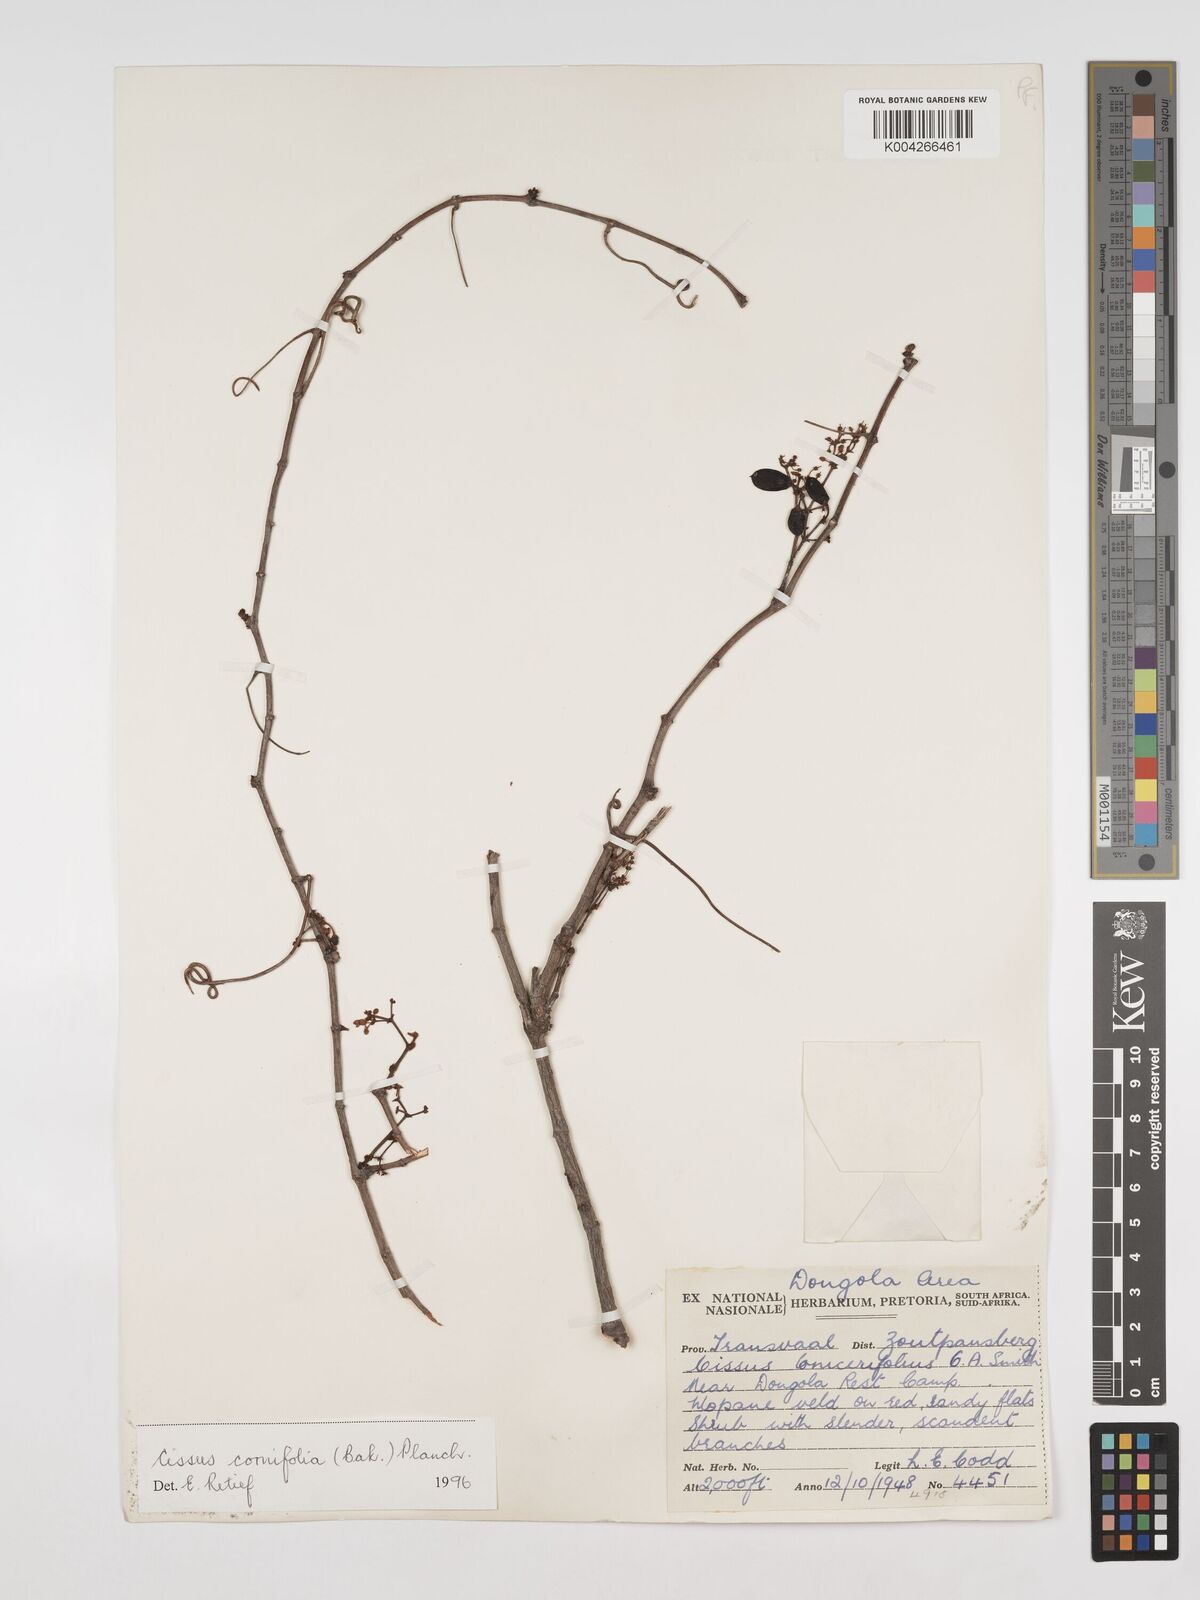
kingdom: Plantae
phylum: Tracheophyta
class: Magnoliopsida
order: Vitales
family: Vitaceae
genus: Cissus
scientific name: Cissus cornifolia
